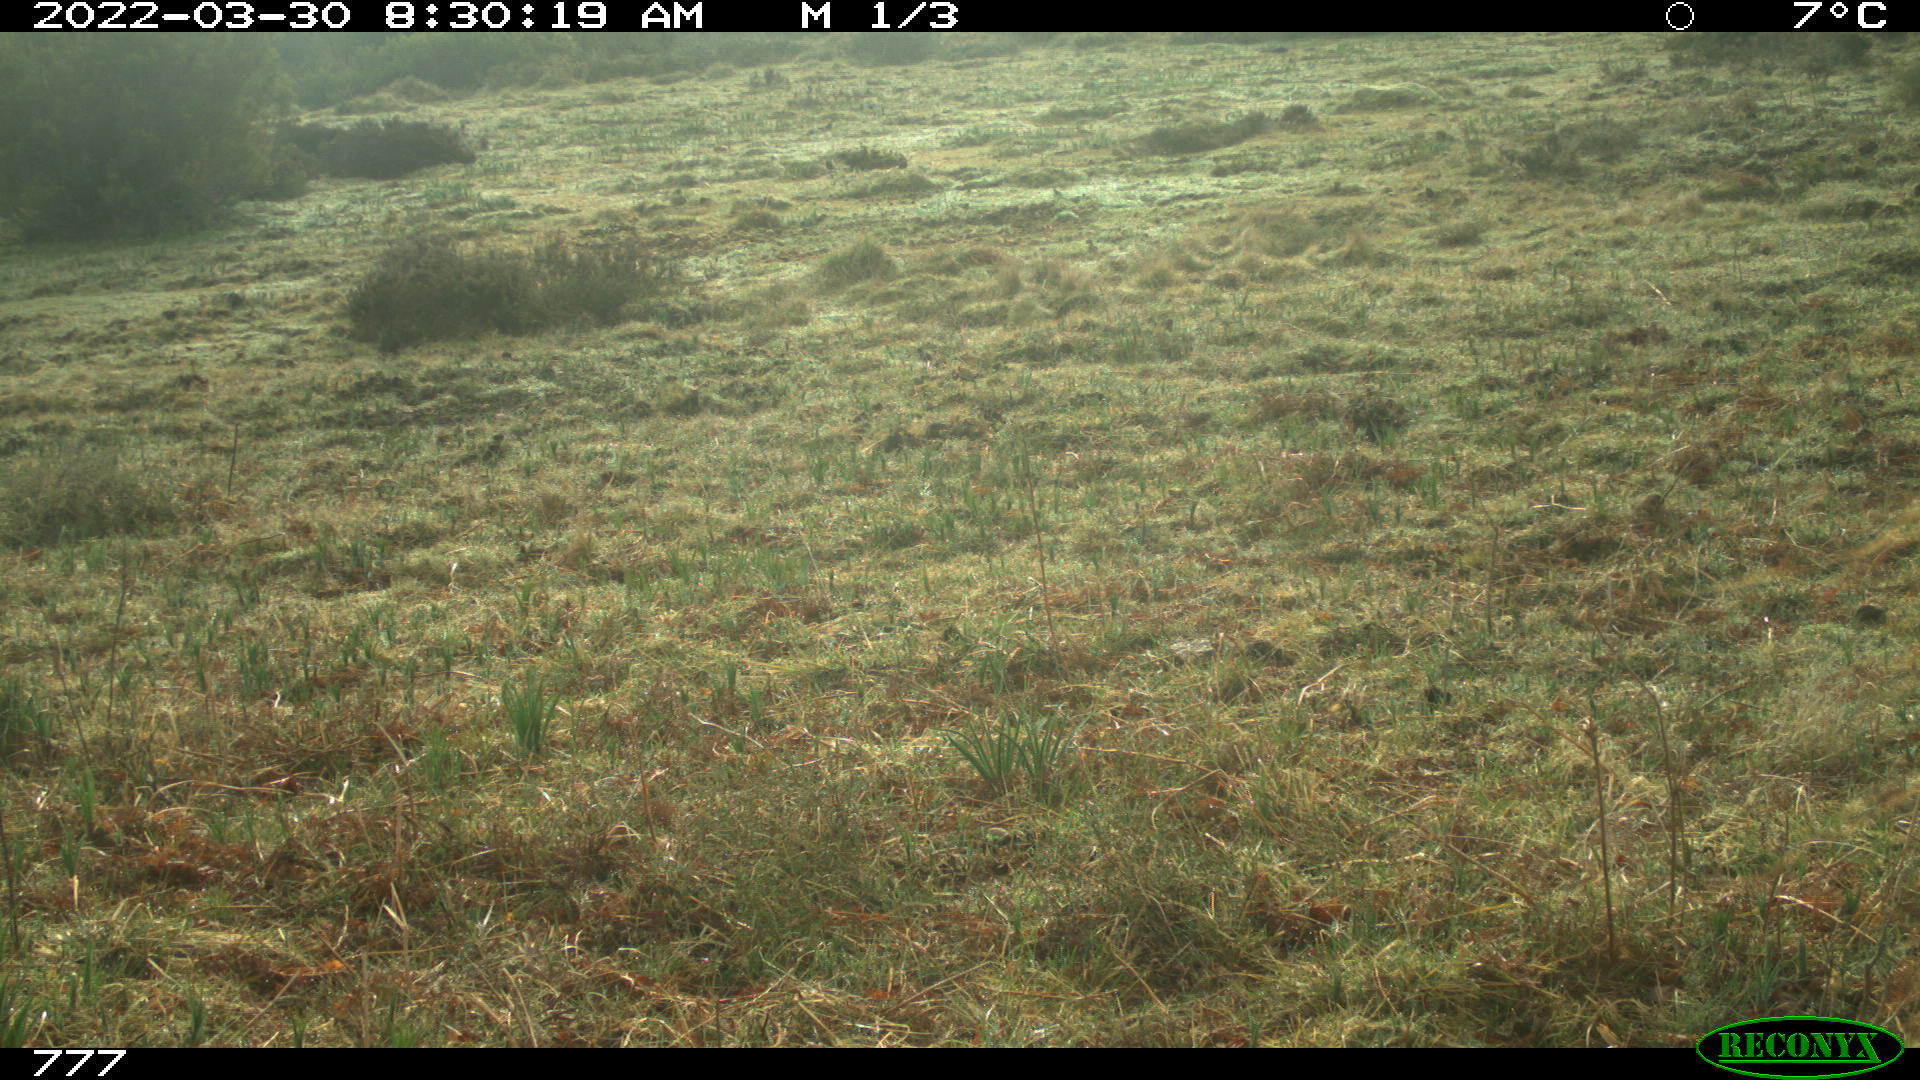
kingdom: Animalia
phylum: Chordata
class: Mammalia
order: Perissodactyla
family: Equidae
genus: Equus
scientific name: Equus caballus
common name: Horse
